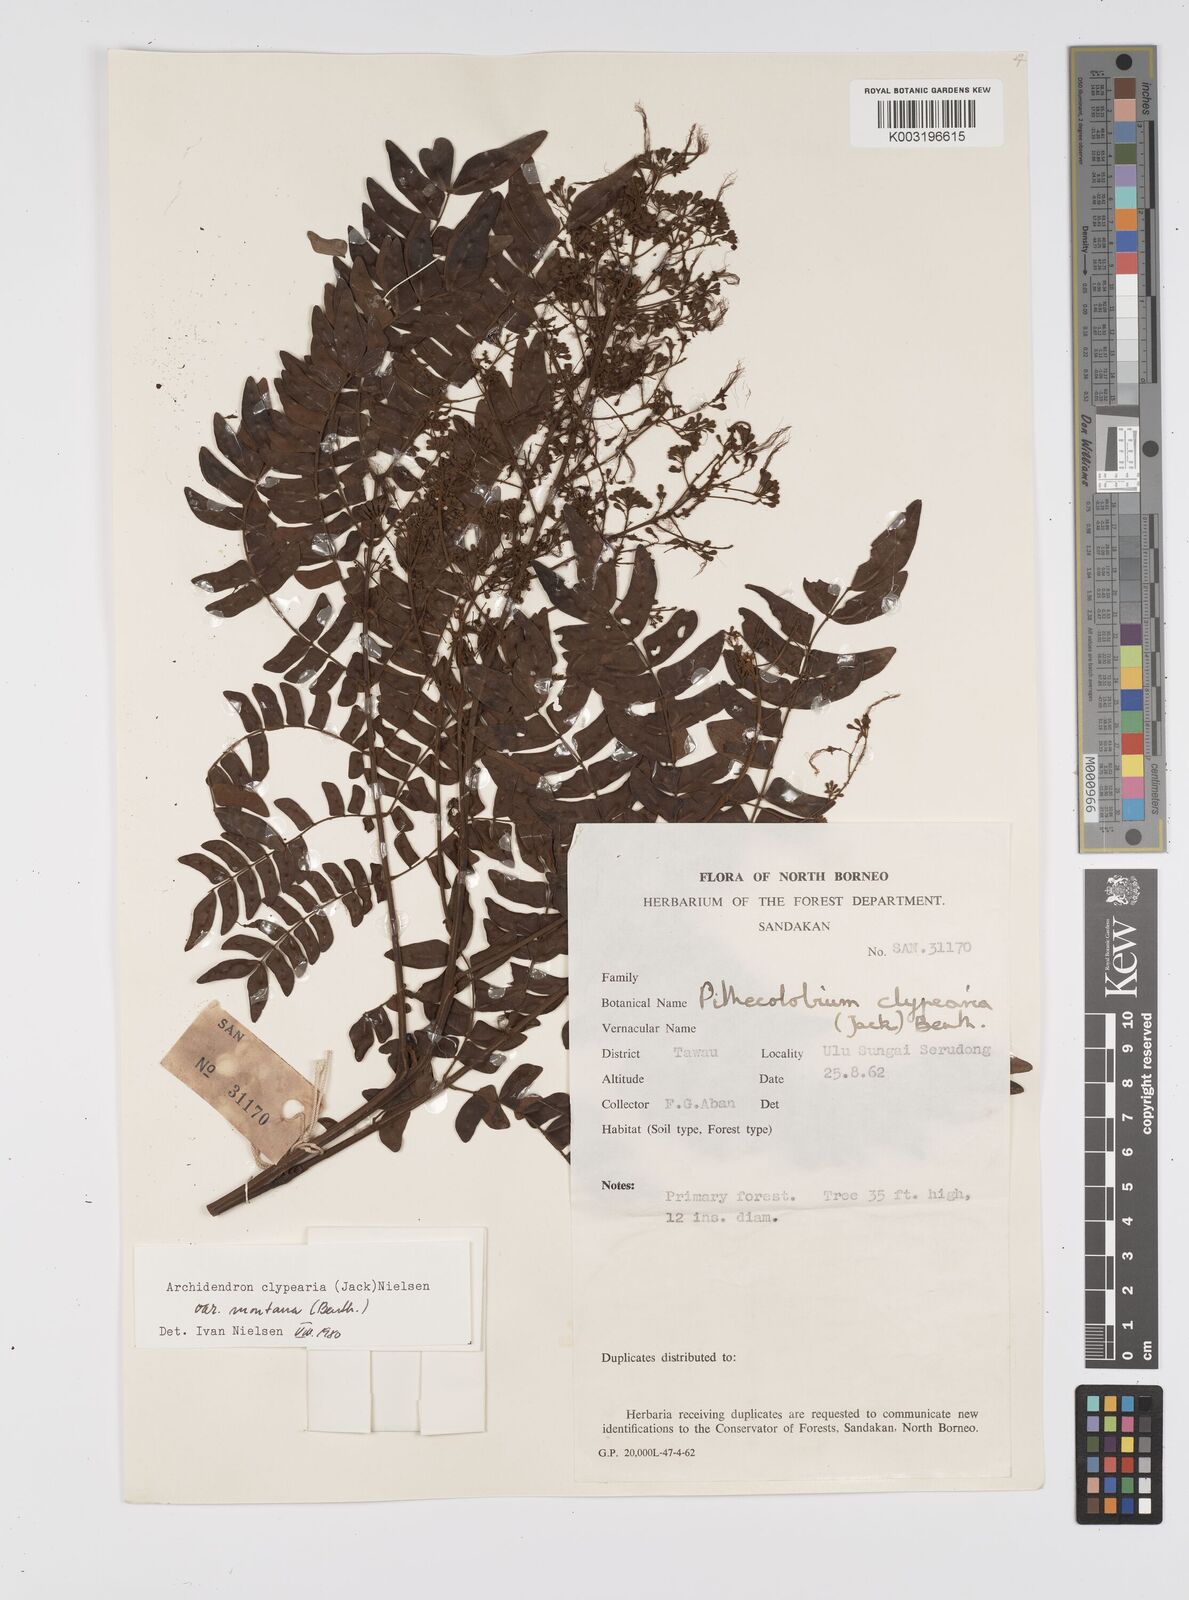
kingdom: Plantae
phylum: Tracheophyta
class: Magnoliopsida
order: Fabales
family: Fabaceae
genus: Archidendron
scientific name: Archidendron clypearia
